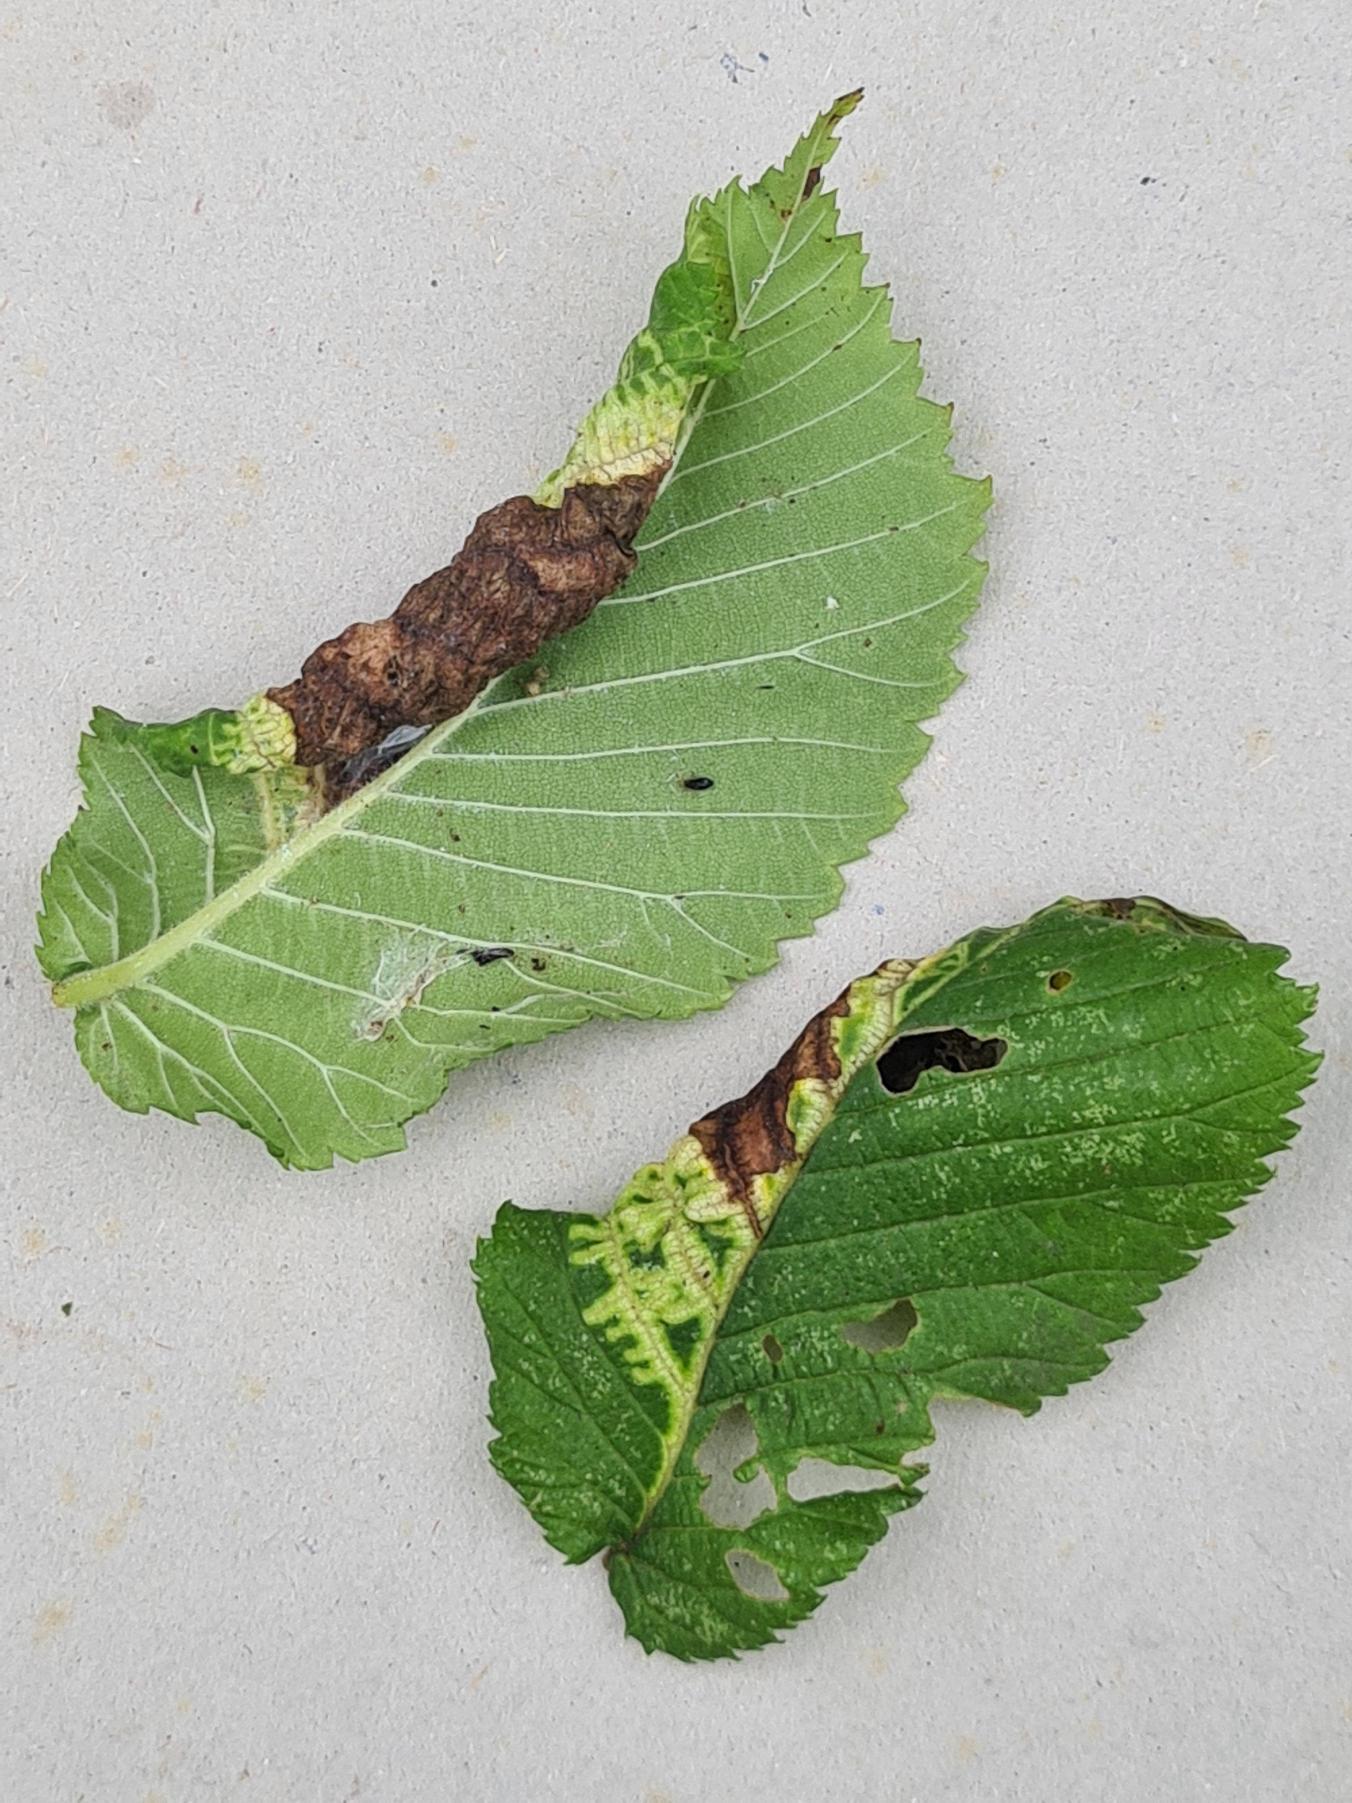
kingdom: Animalia
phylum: Arthropoda
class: Insecta
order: Hemiptera
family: Aphididae
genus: Eriosoma
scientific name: Eriosoma ulmi
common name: Elmeribsrodlus
